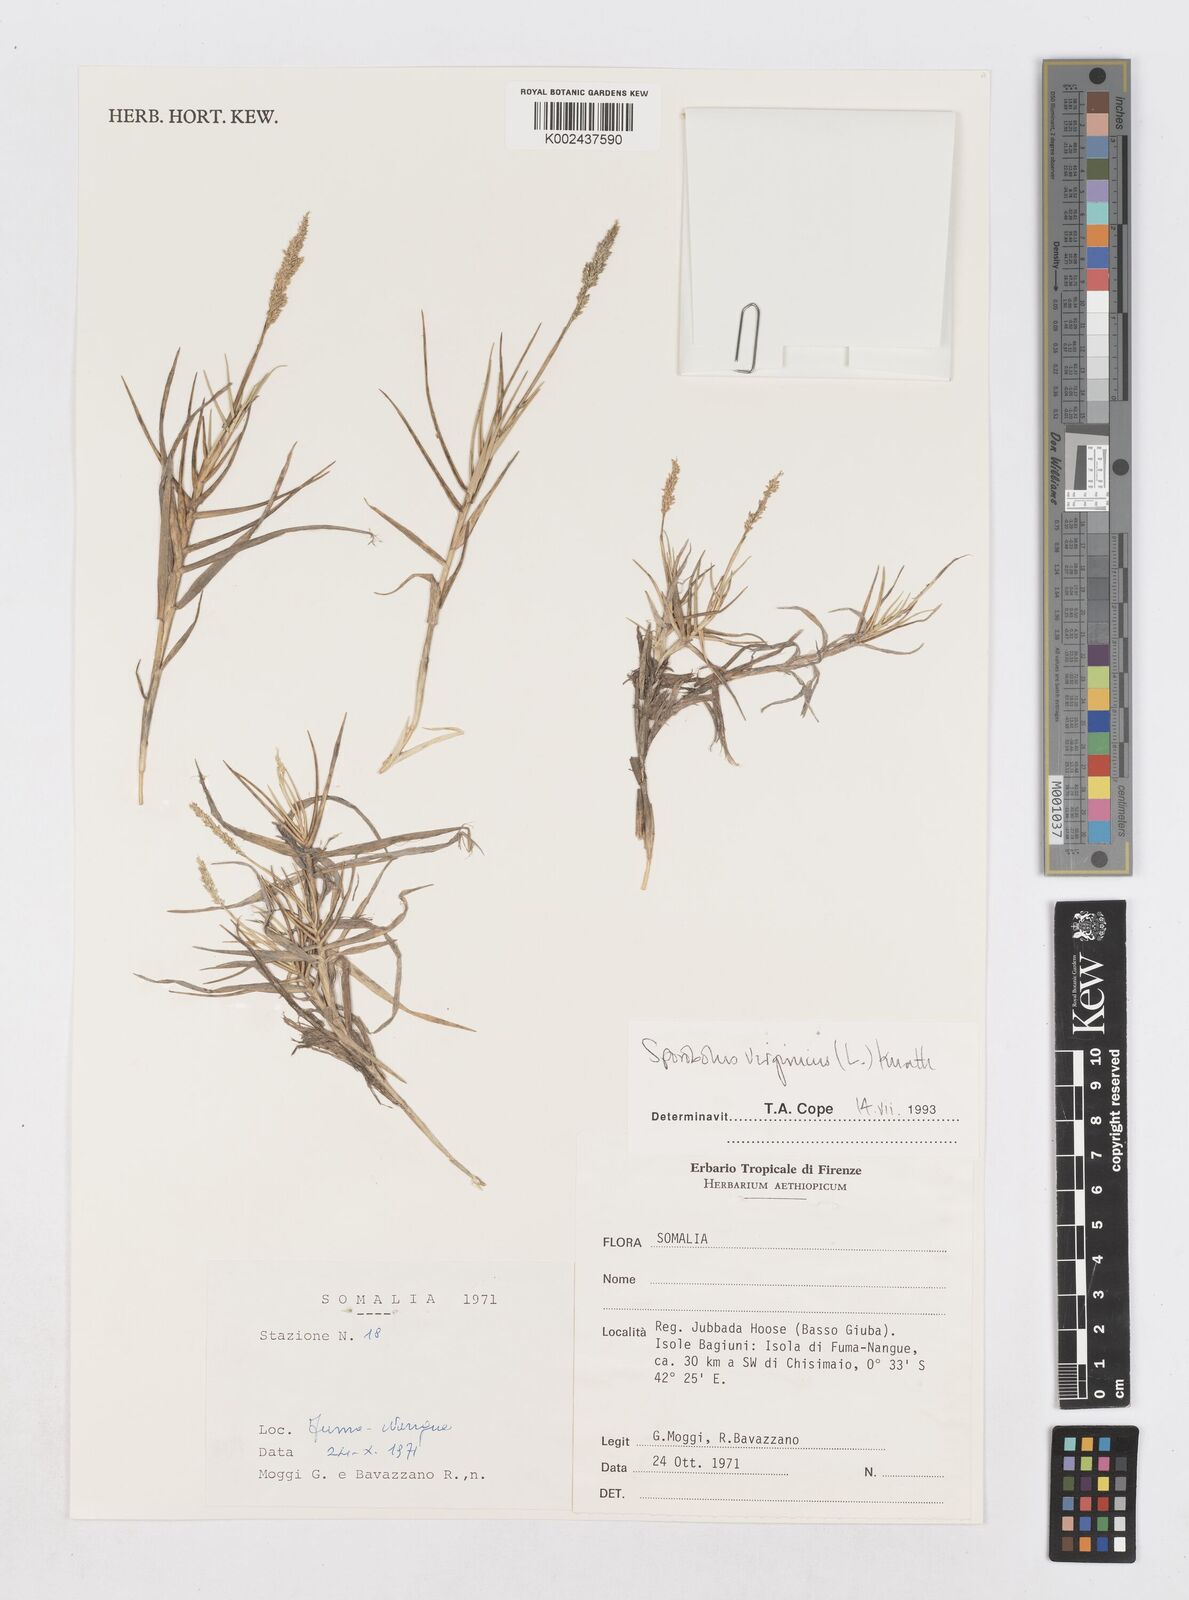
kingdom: Plantae
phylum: Tracheophyta
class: Liliopsida
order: Poales
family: Poaceae
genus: Sporobolus
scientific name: Sporobolus virginicus
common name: Beach dropseed
